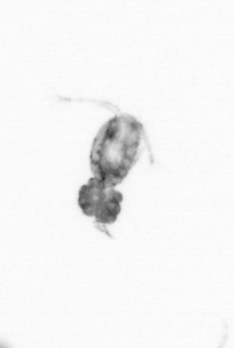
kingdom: Animalia
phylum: Arthropoda
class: Copepoda
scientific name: Copepoda
